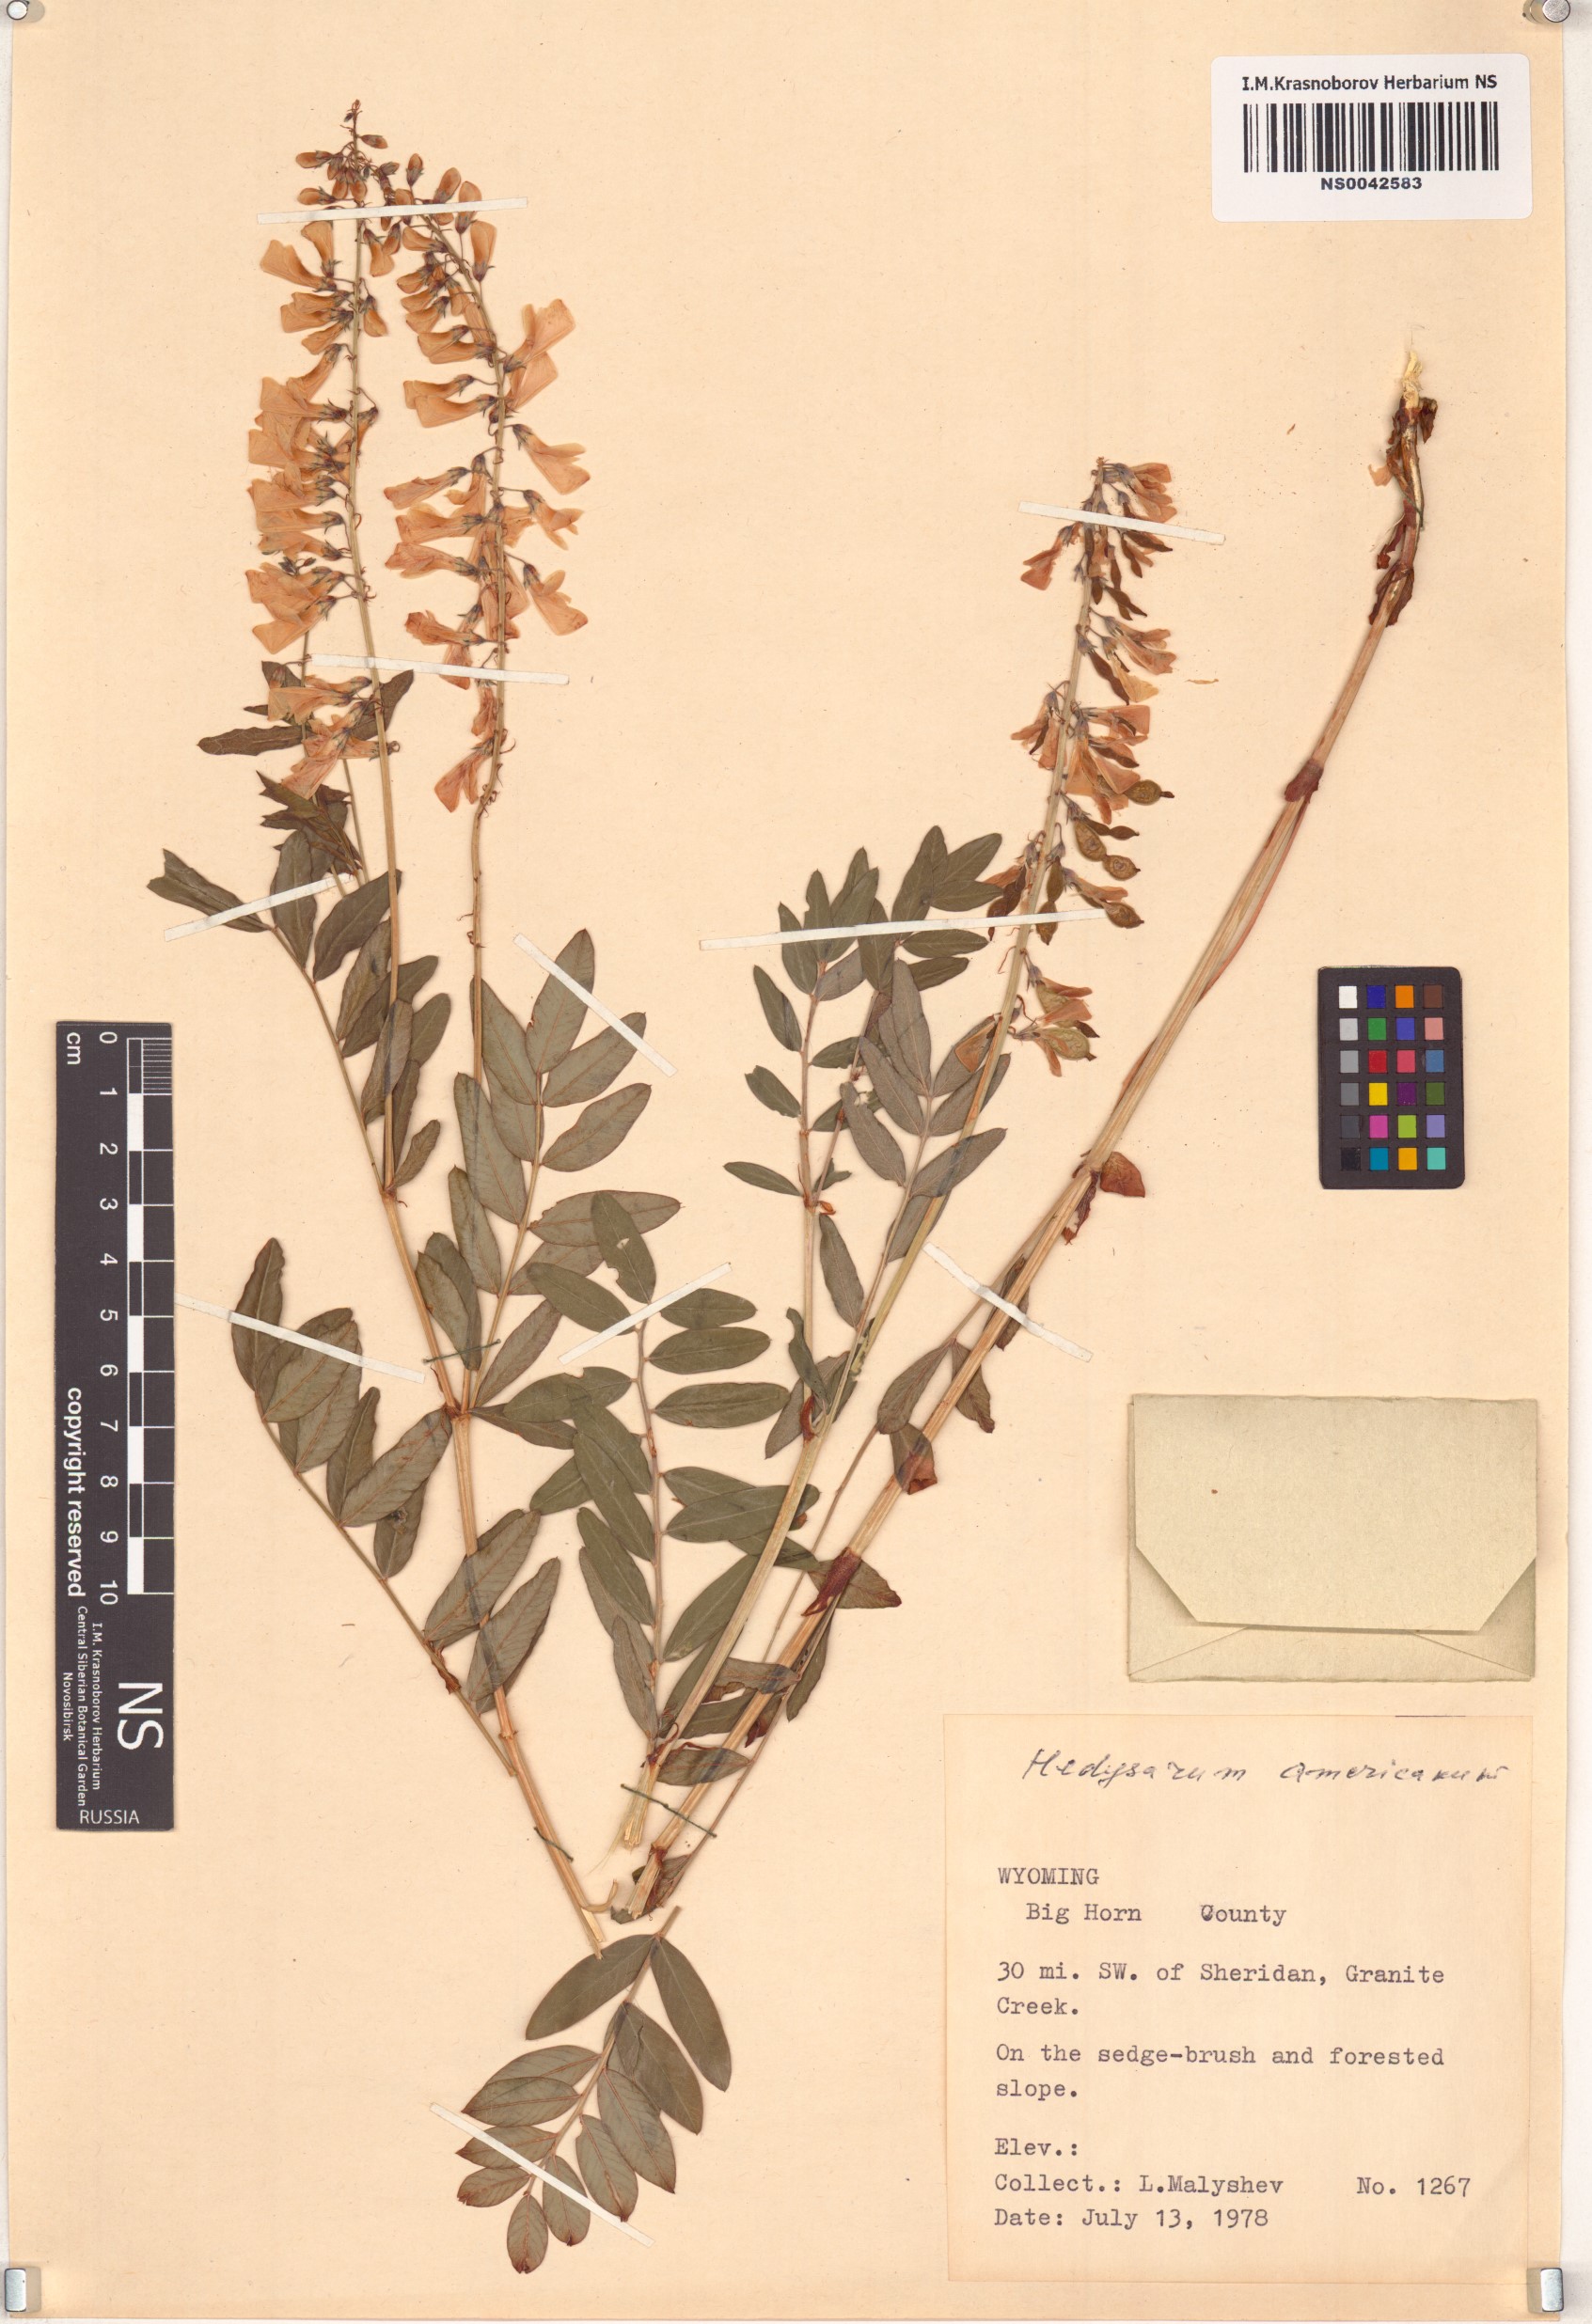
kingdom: Plantae
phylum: Tracheophyta
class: Magnoliopsida
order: Fabales
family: Fabaceae
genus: Hedysarum
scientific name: Hedysarum americanum
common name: Alpine hedysarum
